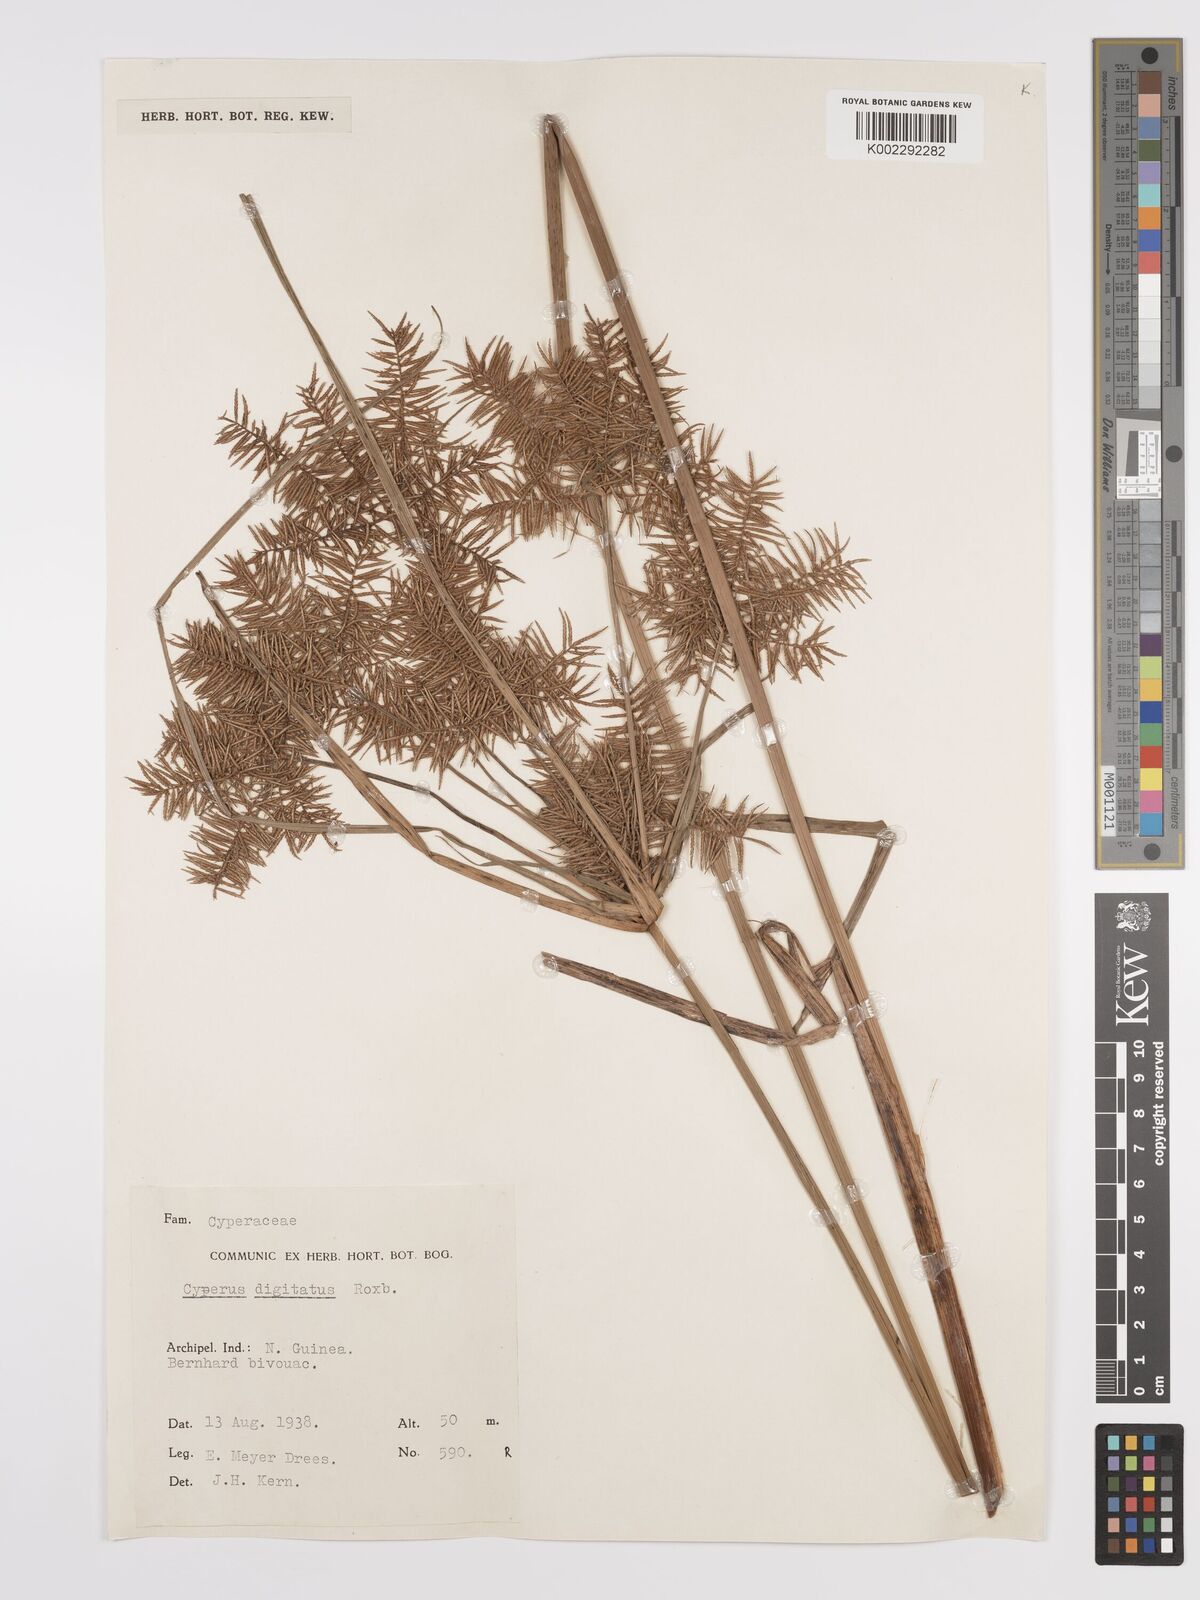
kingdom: Plantae
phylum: Tracheophyta
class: Liliopsida
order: Poales
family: Cyperaceae
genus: Cyperus
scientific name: Cyperus digitatus
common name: Finger flatsedge
